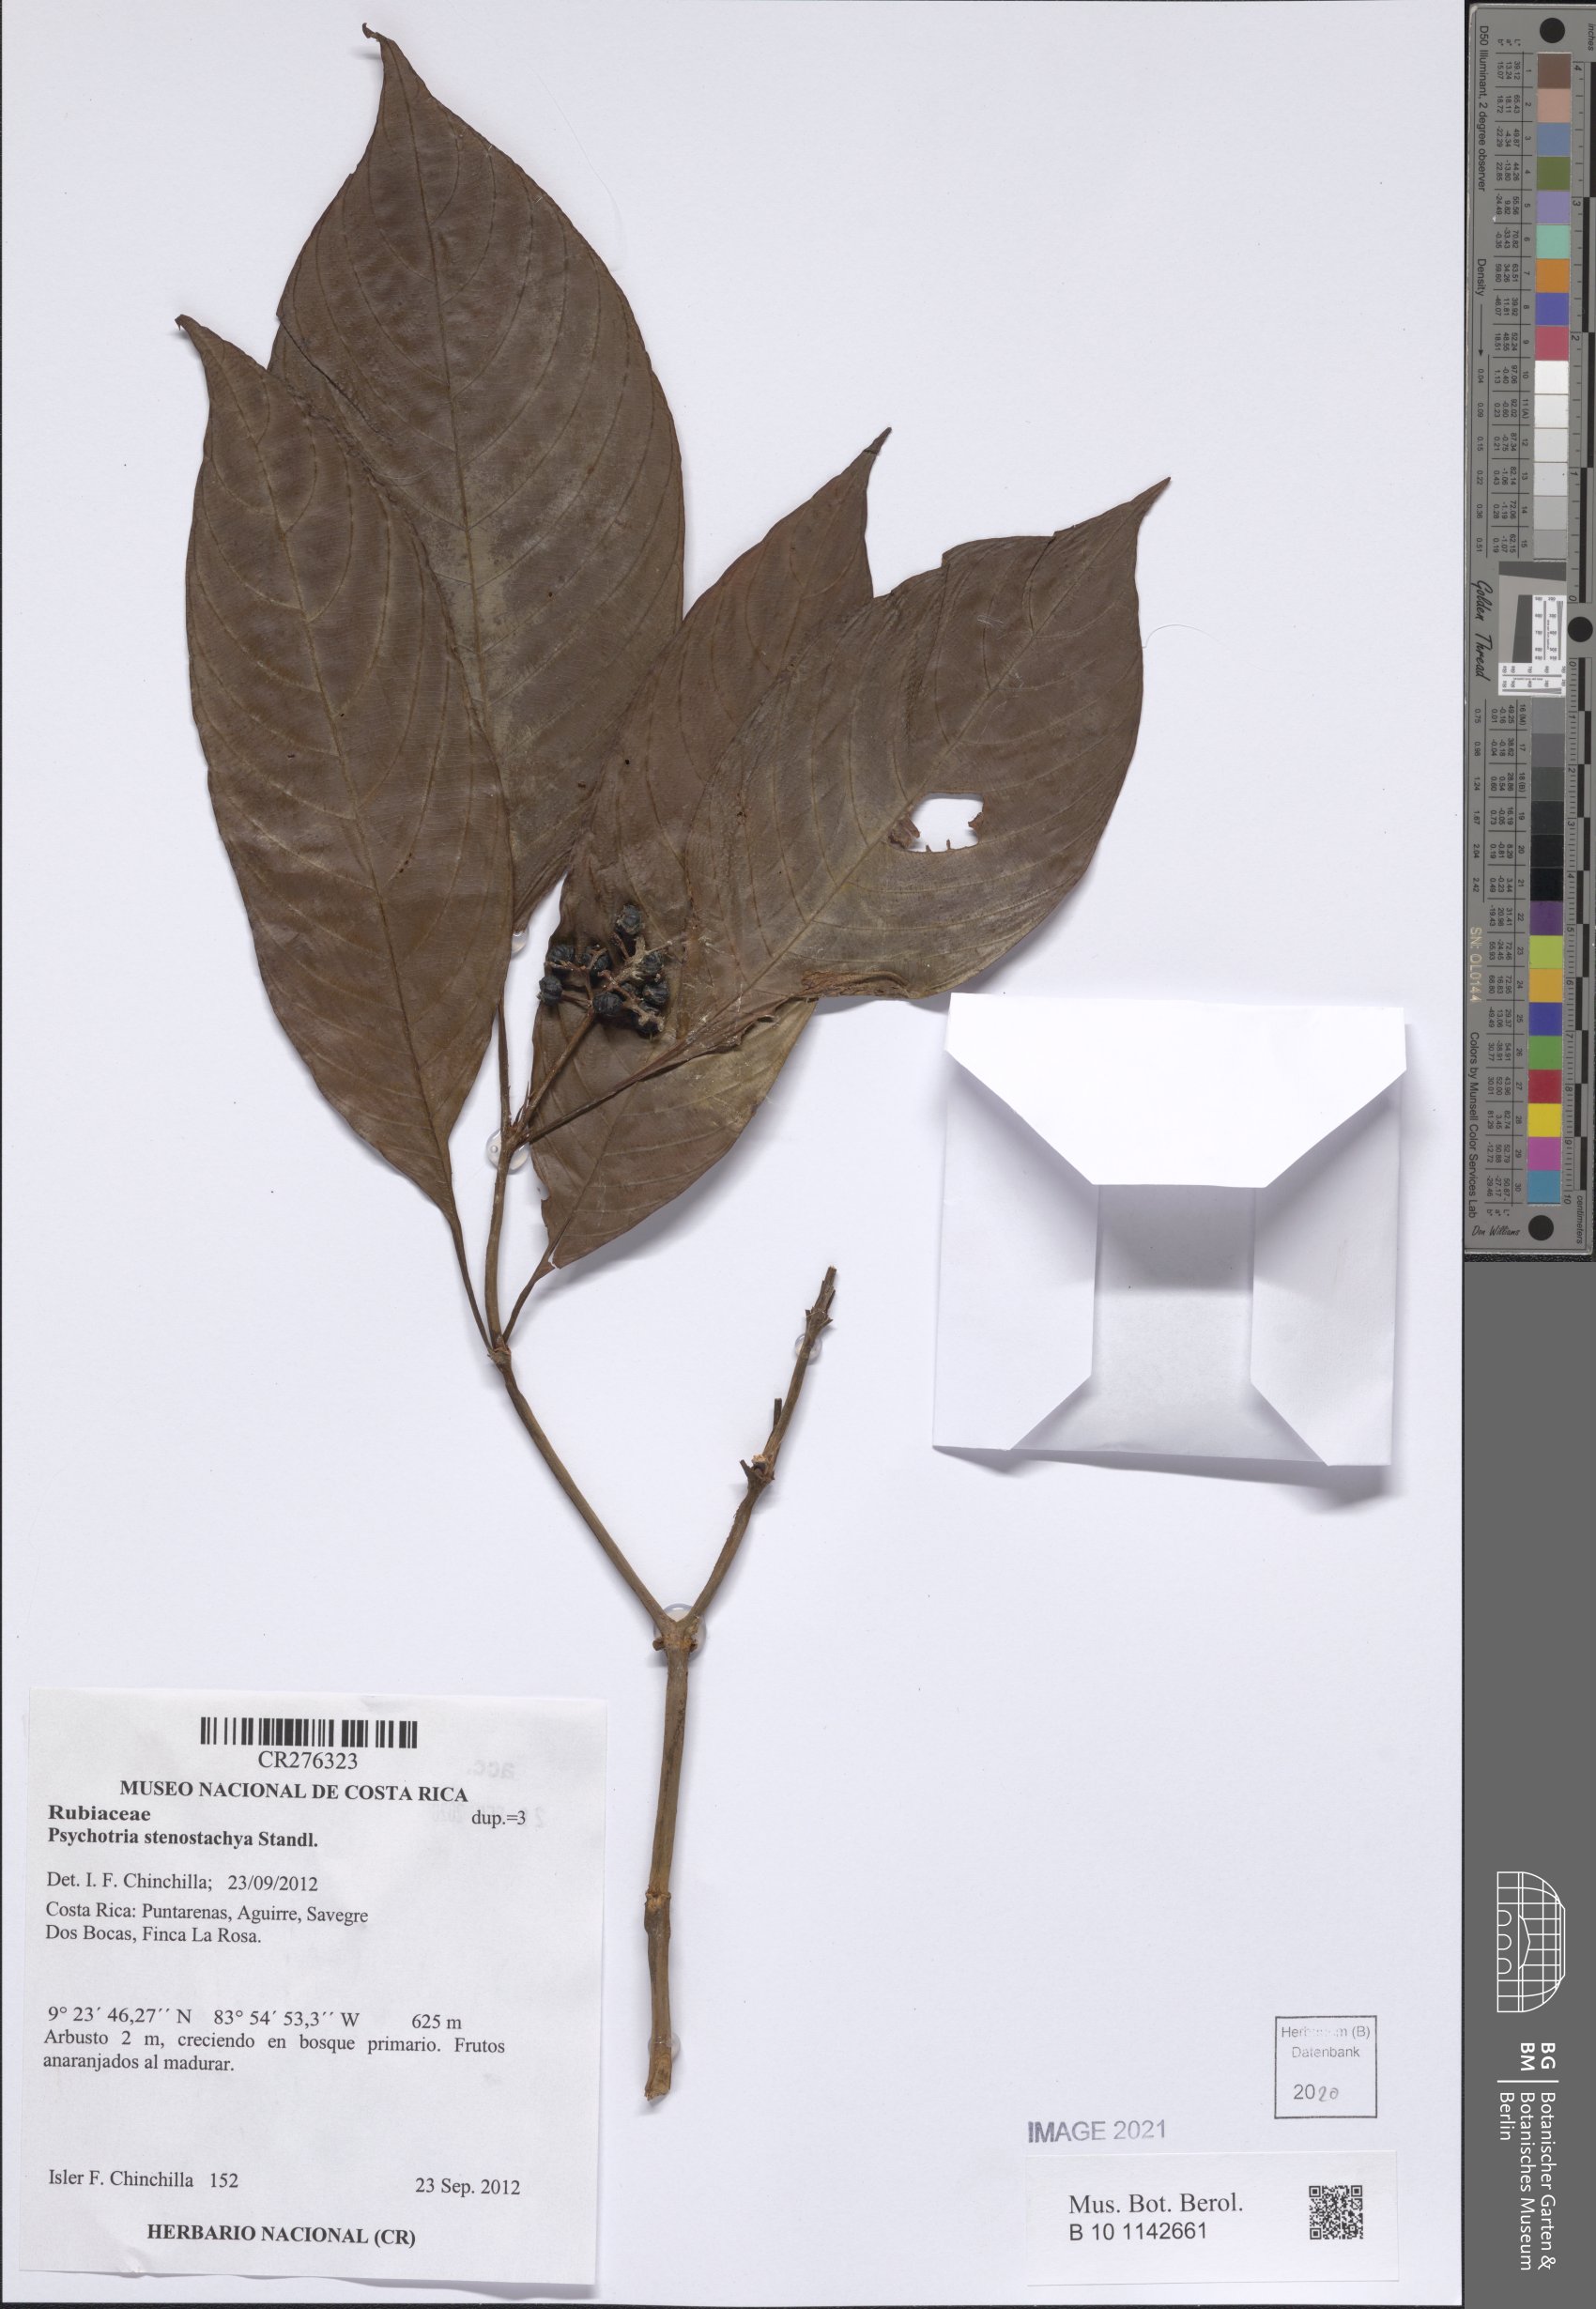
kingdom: Plantae
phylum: Tracheophyta
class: Magnoliopsida
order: Gentianales
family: Rubiaceae
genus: Palicourea
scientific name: Palicourea stenostachya
